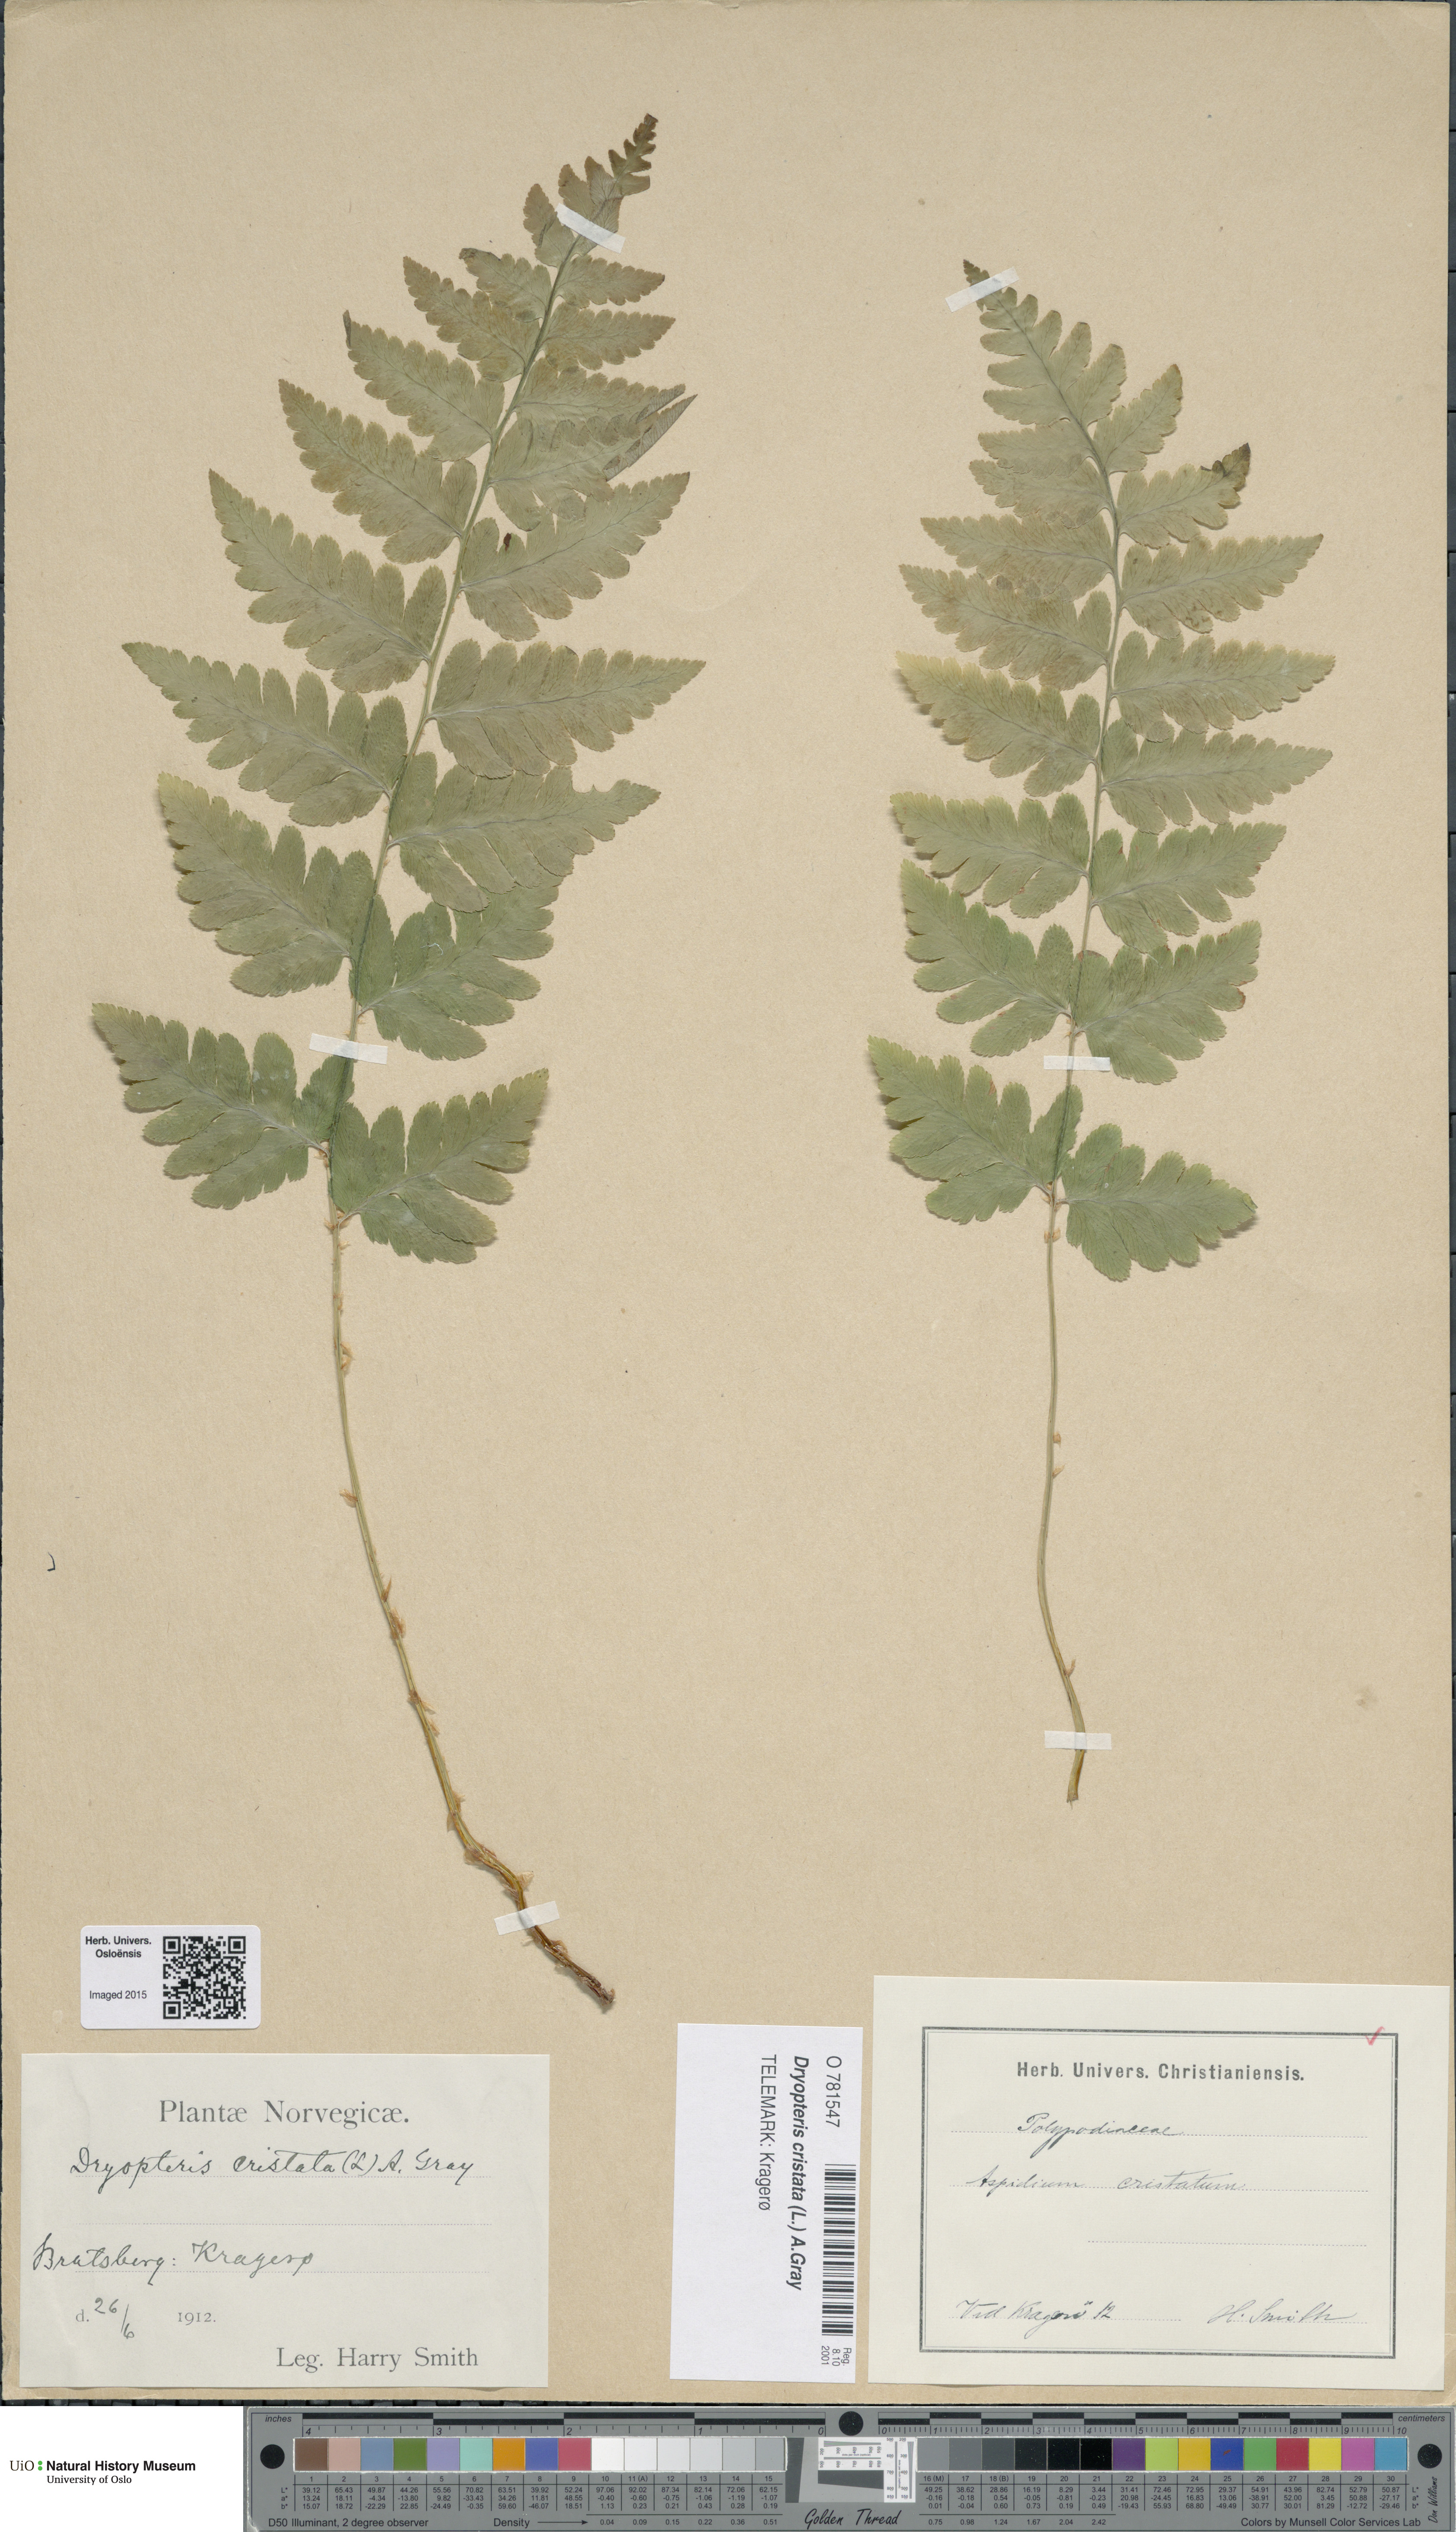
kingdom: Plantae
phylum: Tracheophyta
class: Polypodiopsida
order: Polypodiales
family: Dryopteridaceae
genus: Dryopteris
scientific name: Dryopteris cristata
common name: Crested wood fern
